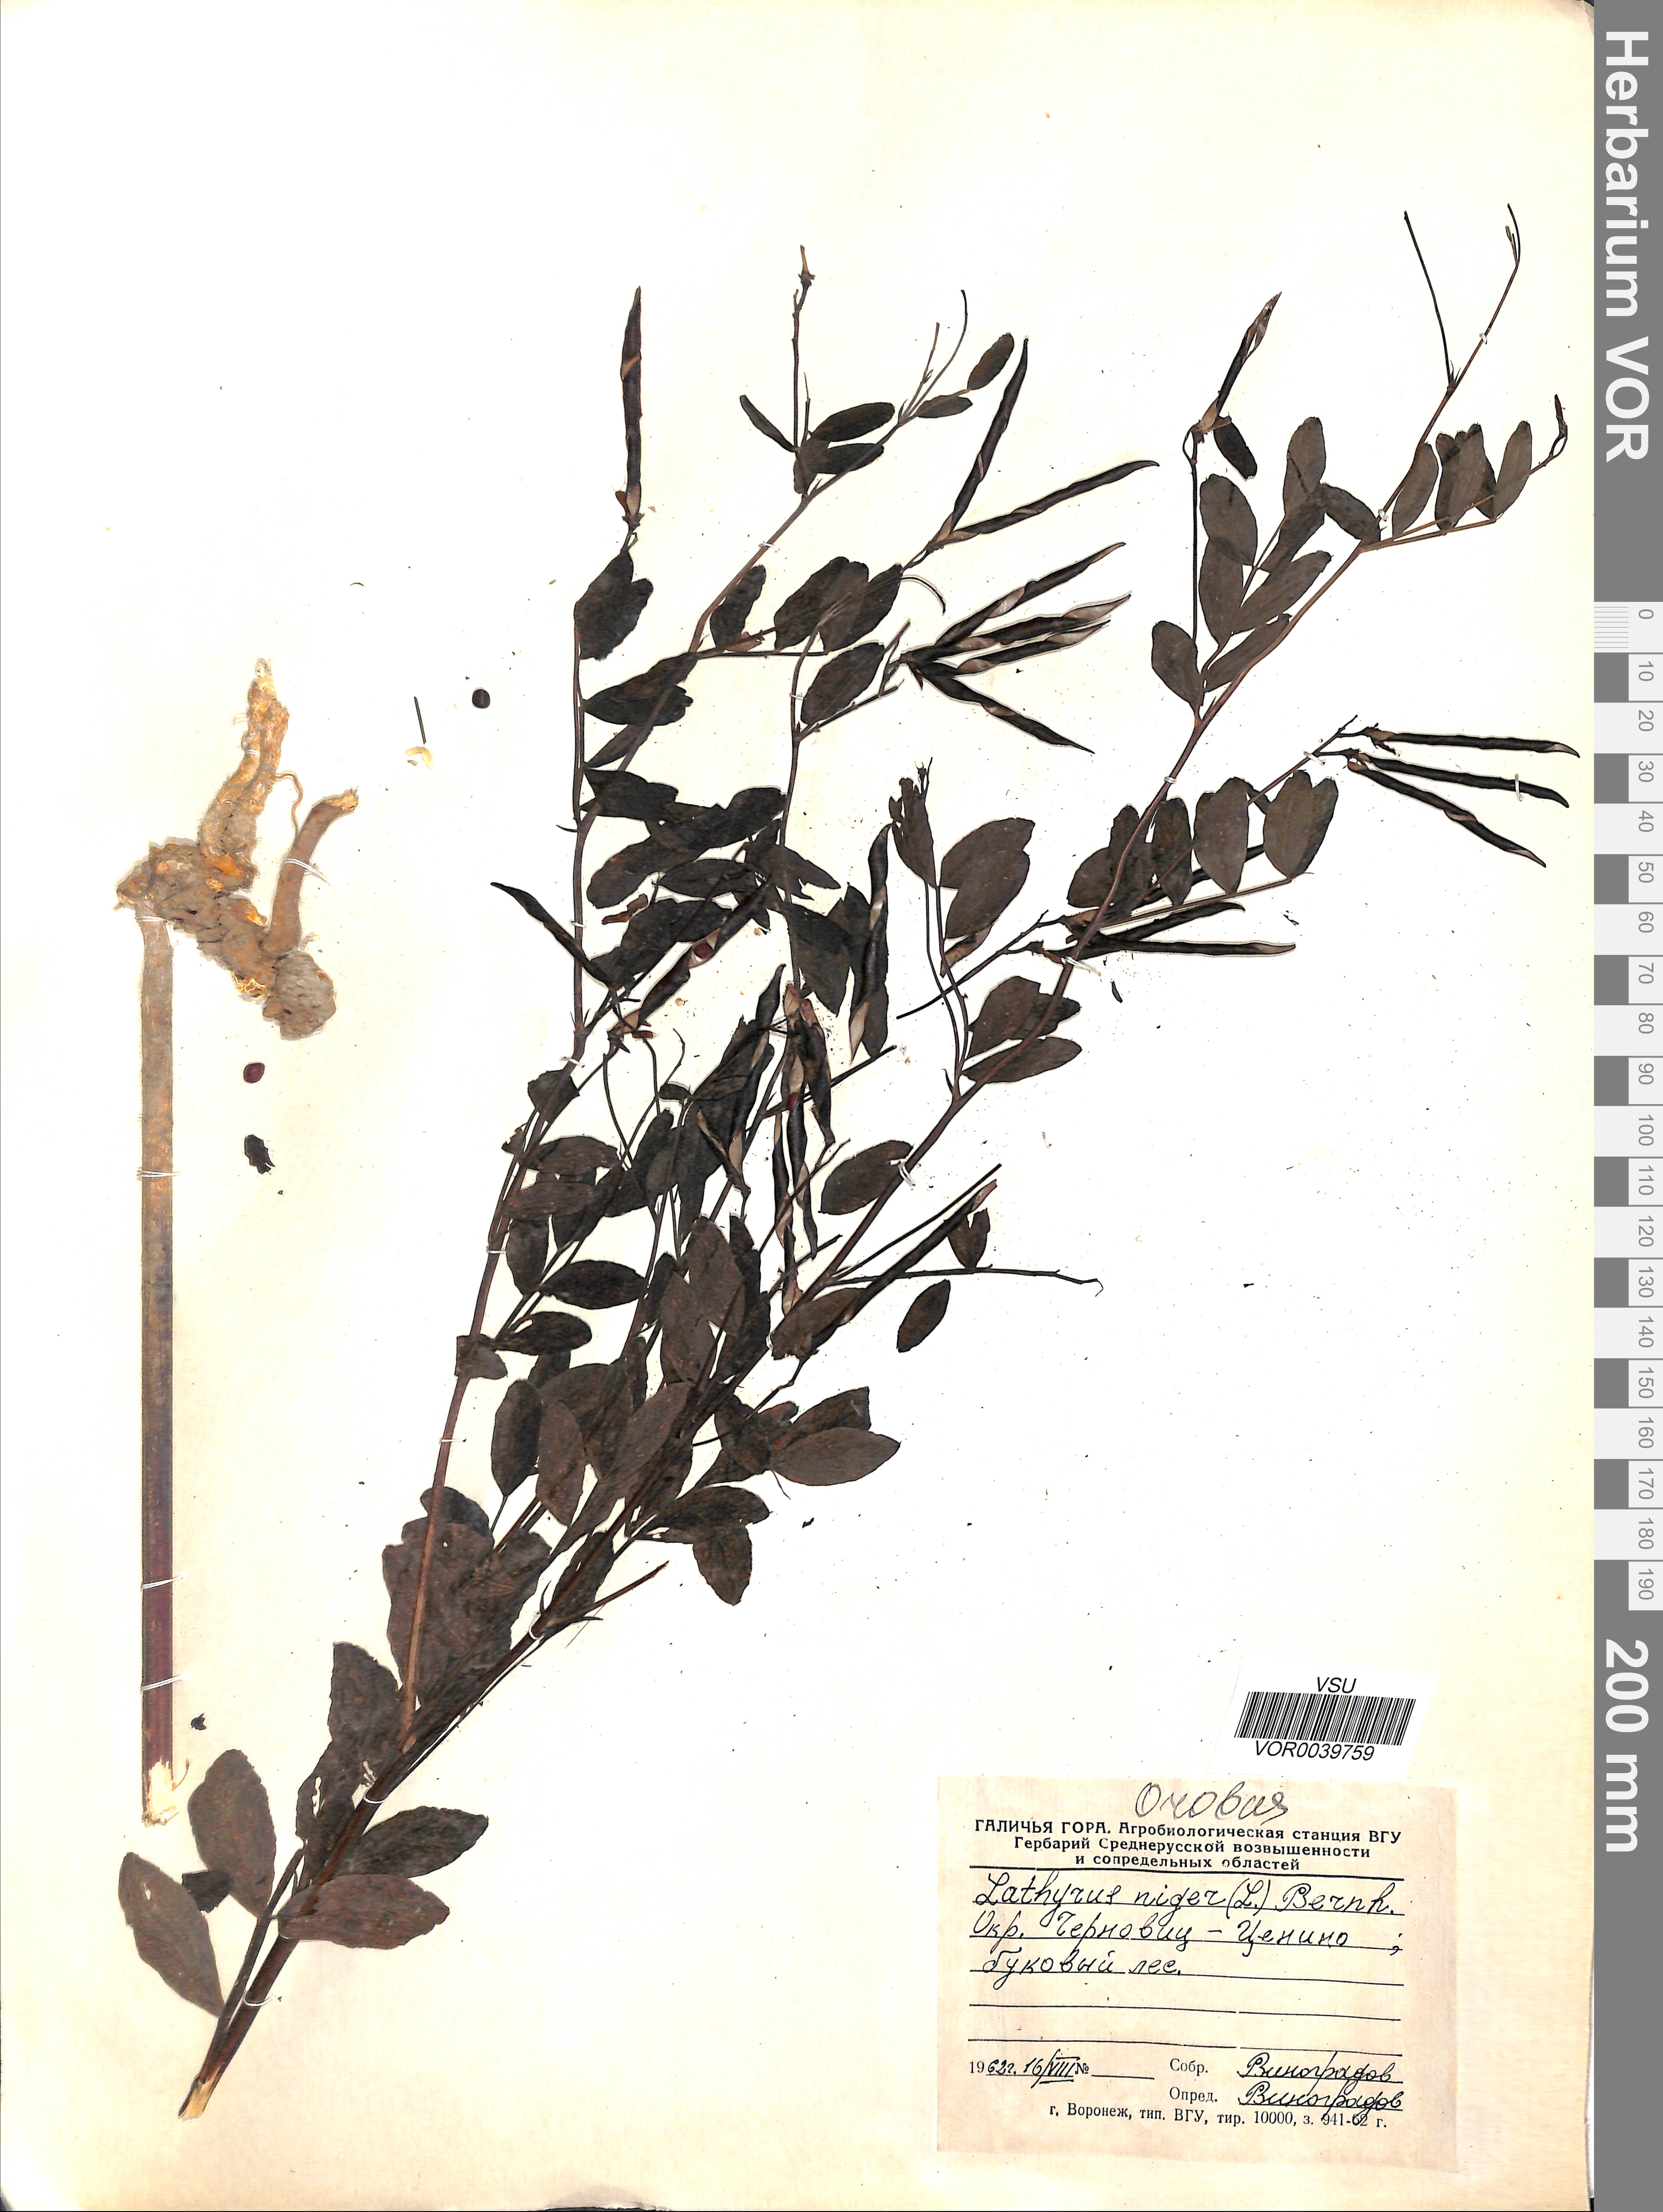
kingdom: Plantae
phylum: Tracheophyta
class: Magnoliopsida
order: Fabales
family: Fabaceae
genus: Lathyrus
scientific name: Lathyrus niger
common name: Black pea
